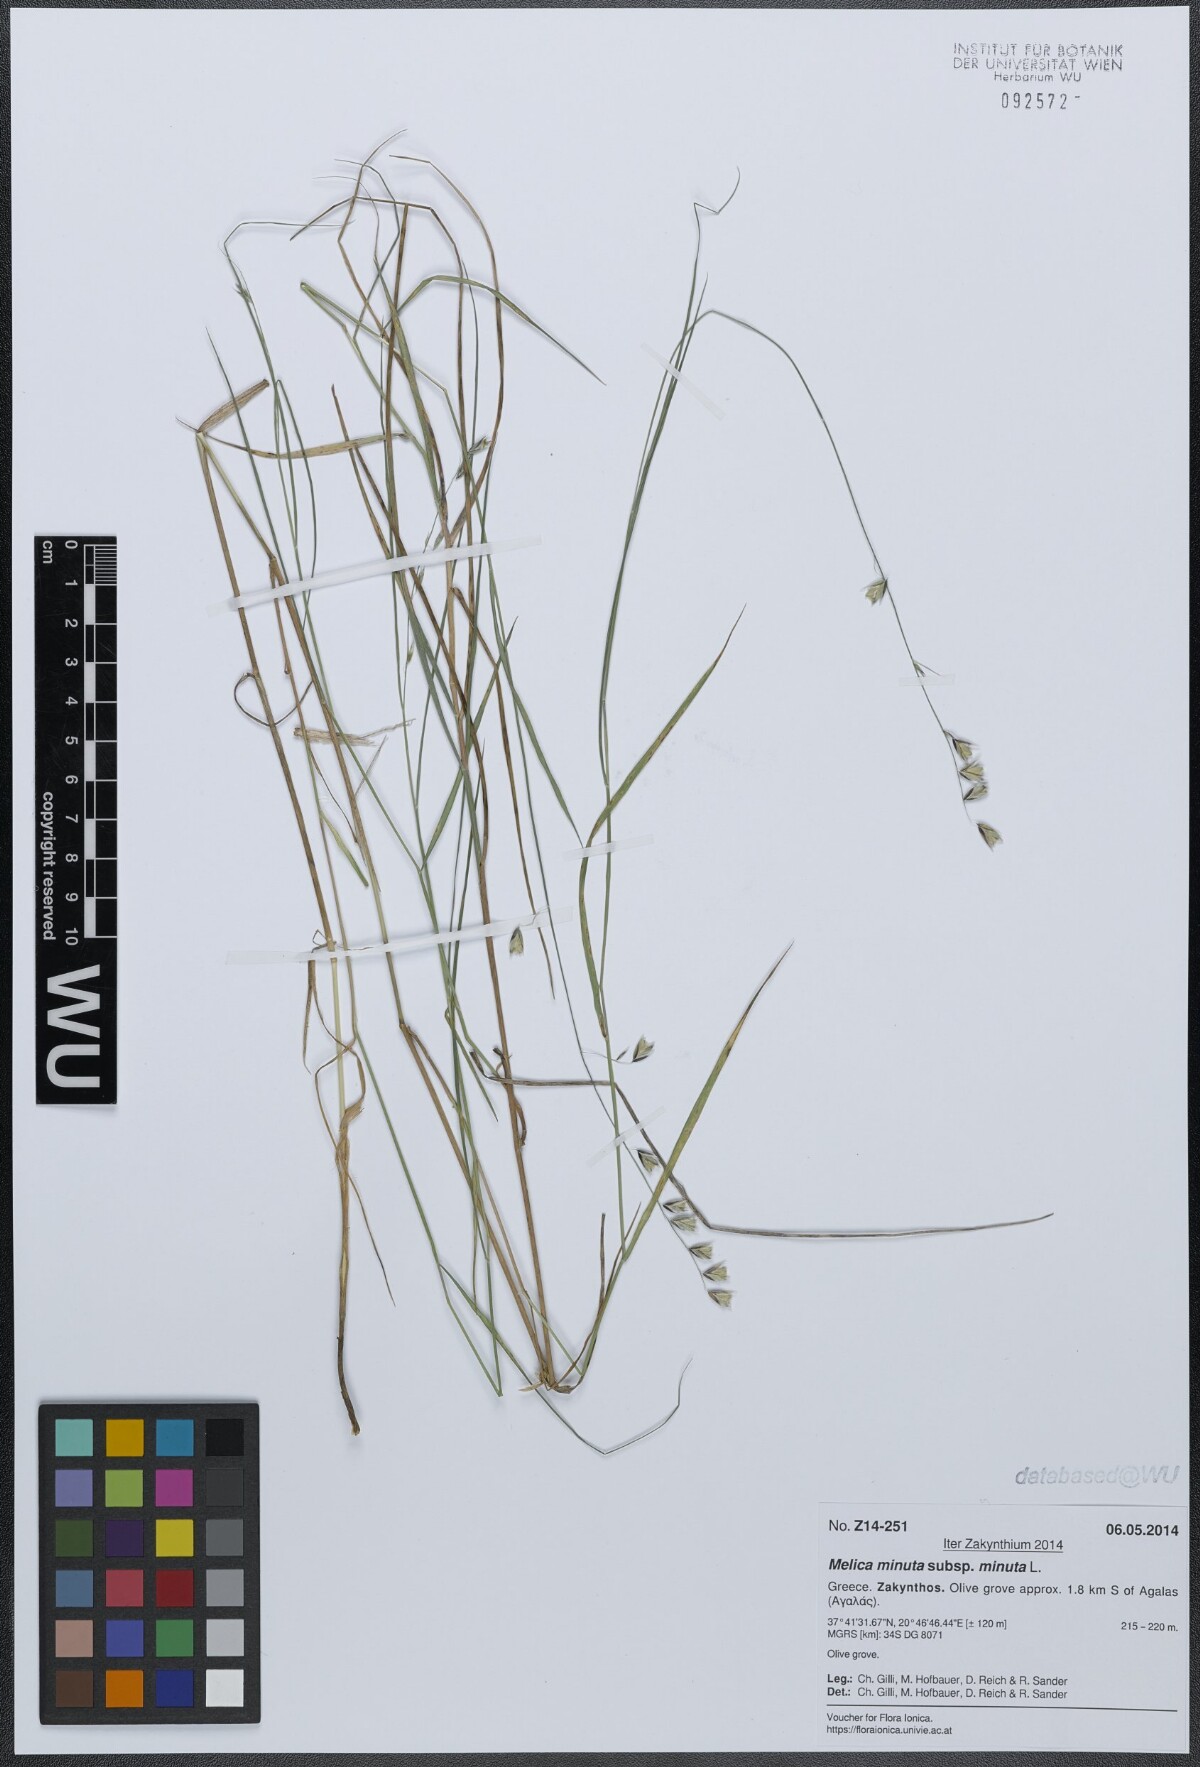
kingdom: Plantae
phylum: Tracheophyta
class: Liliopsida
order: Poales
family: Poaceae
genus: Melica
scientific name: Melica minuta
